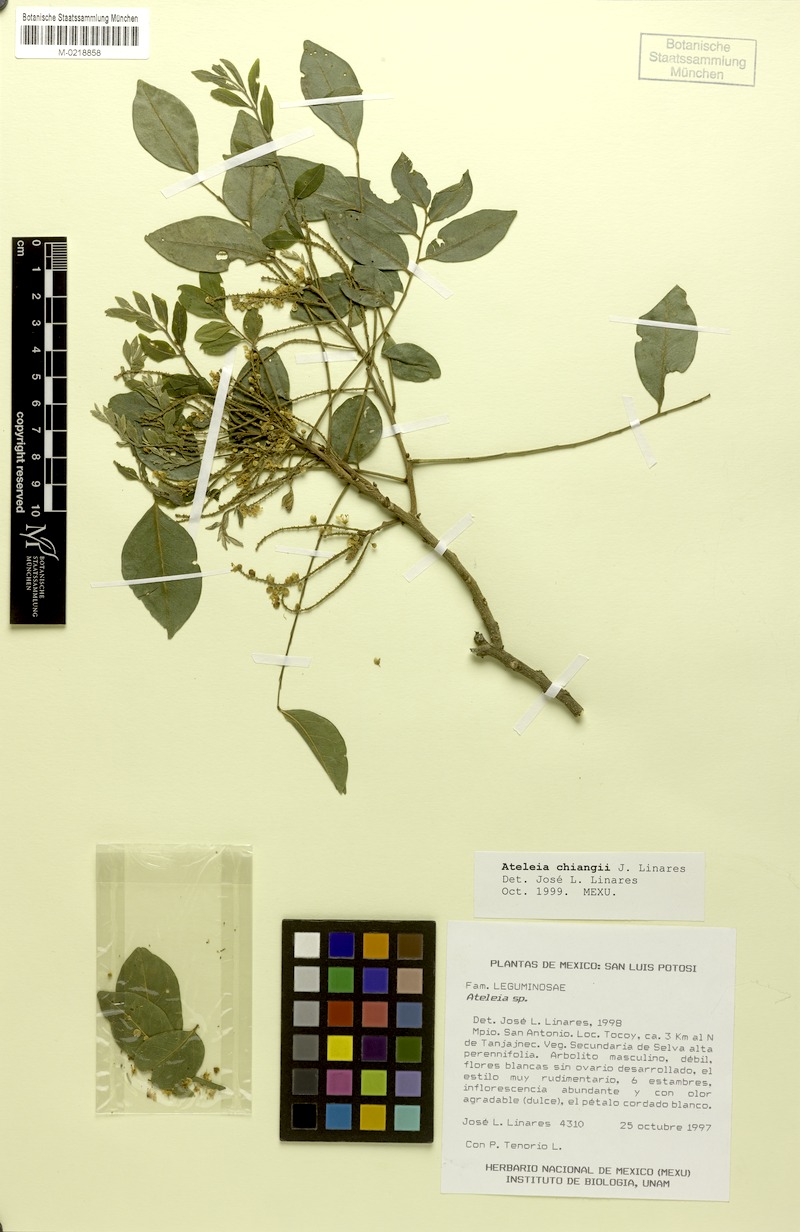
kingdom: Plantae
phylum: Tracheophyta
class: Magnoliopsida
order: Fabales
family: Fabaceae
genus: Ateleia
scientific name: Ateleia chiangii
